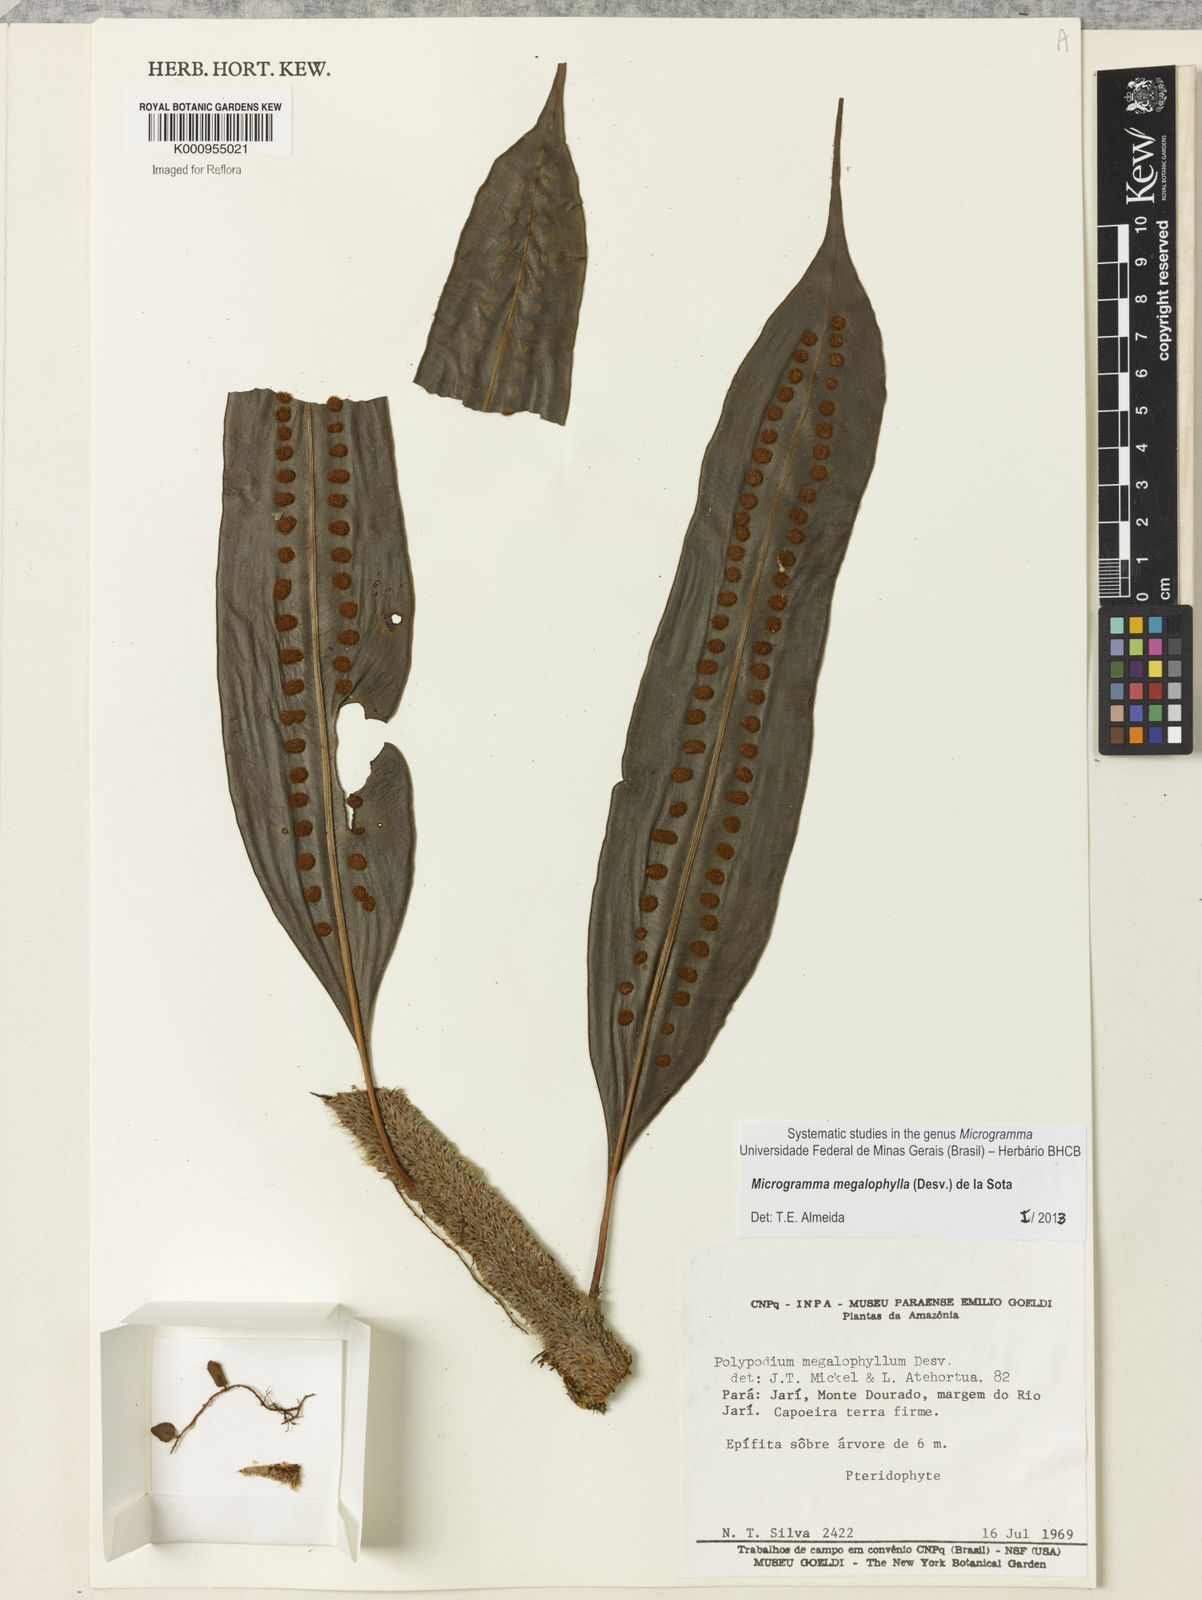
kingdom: Plantae
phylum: Tracheophyta
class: Polypodiopsida
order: Polypodiales
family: Polypodiaceae
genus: Microgramma
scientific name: Microgramma megalophylla
